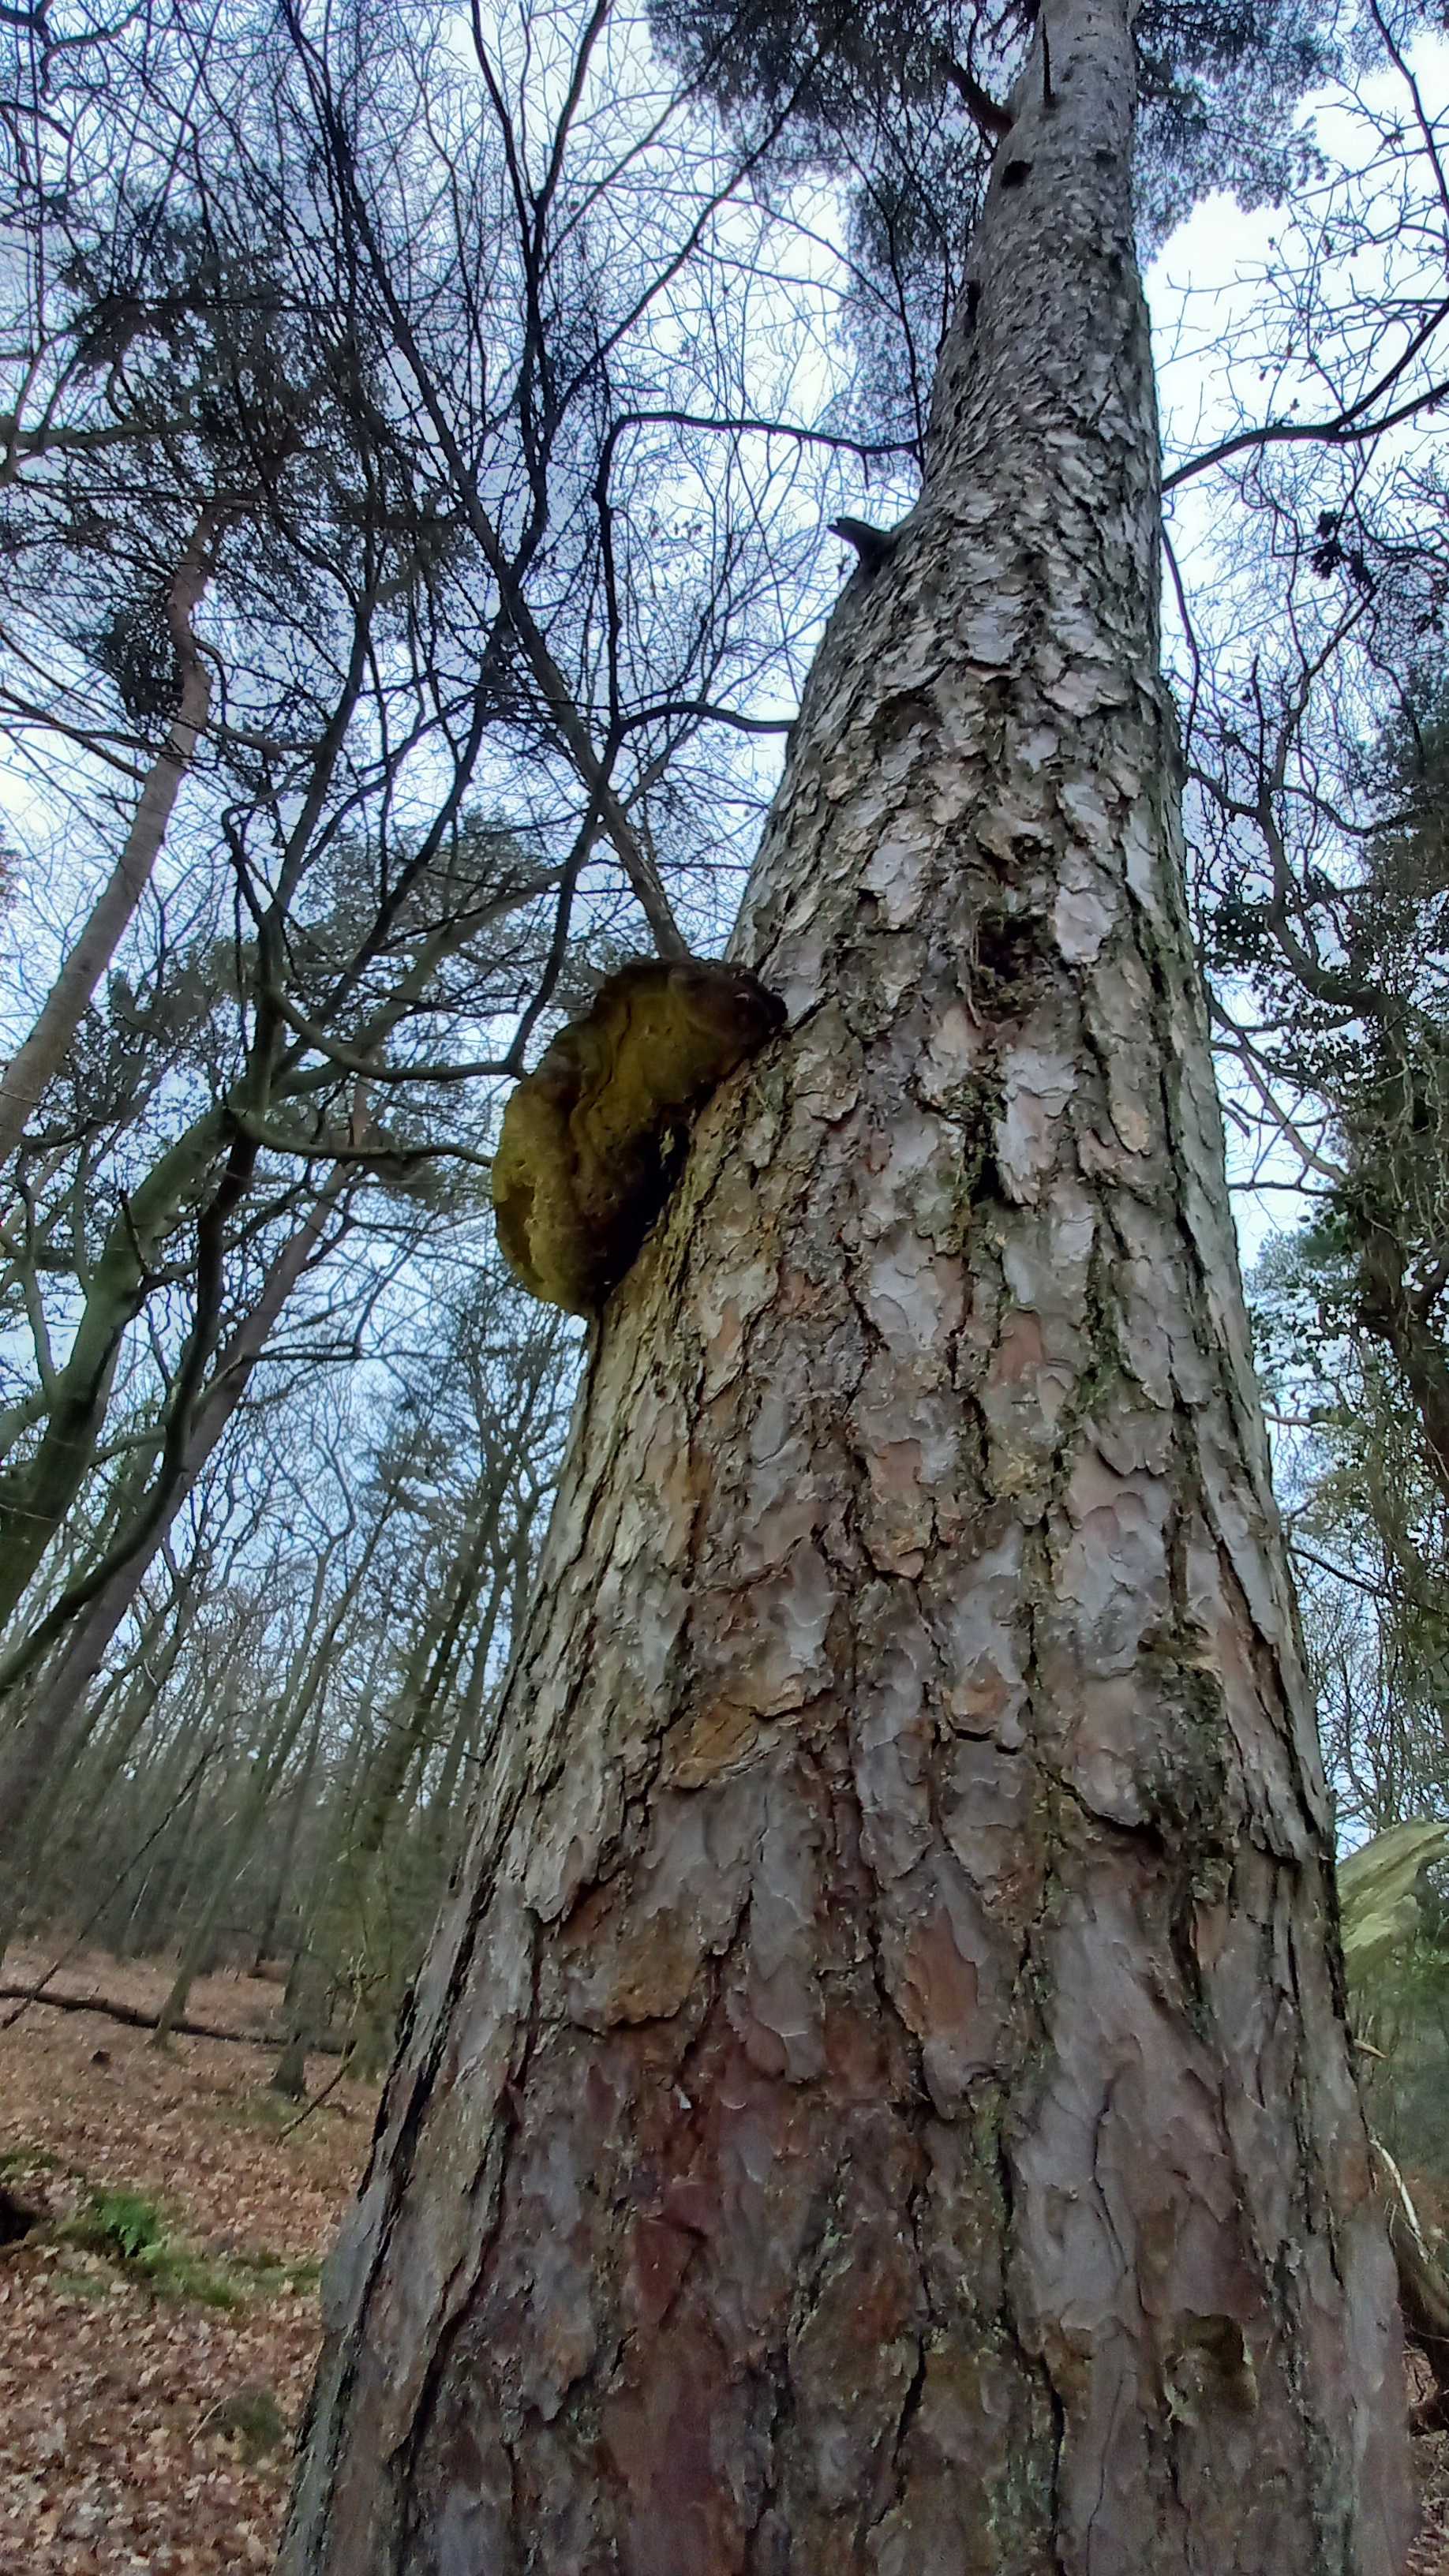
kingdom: Fungi
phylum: Basidiomycota
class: Agaricomycetes
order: Hymenochaetales
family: Hymenochaetaceae
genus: Porodaedalea
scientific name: Porodaedalea pini
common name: fyrre-ildporesvamp
